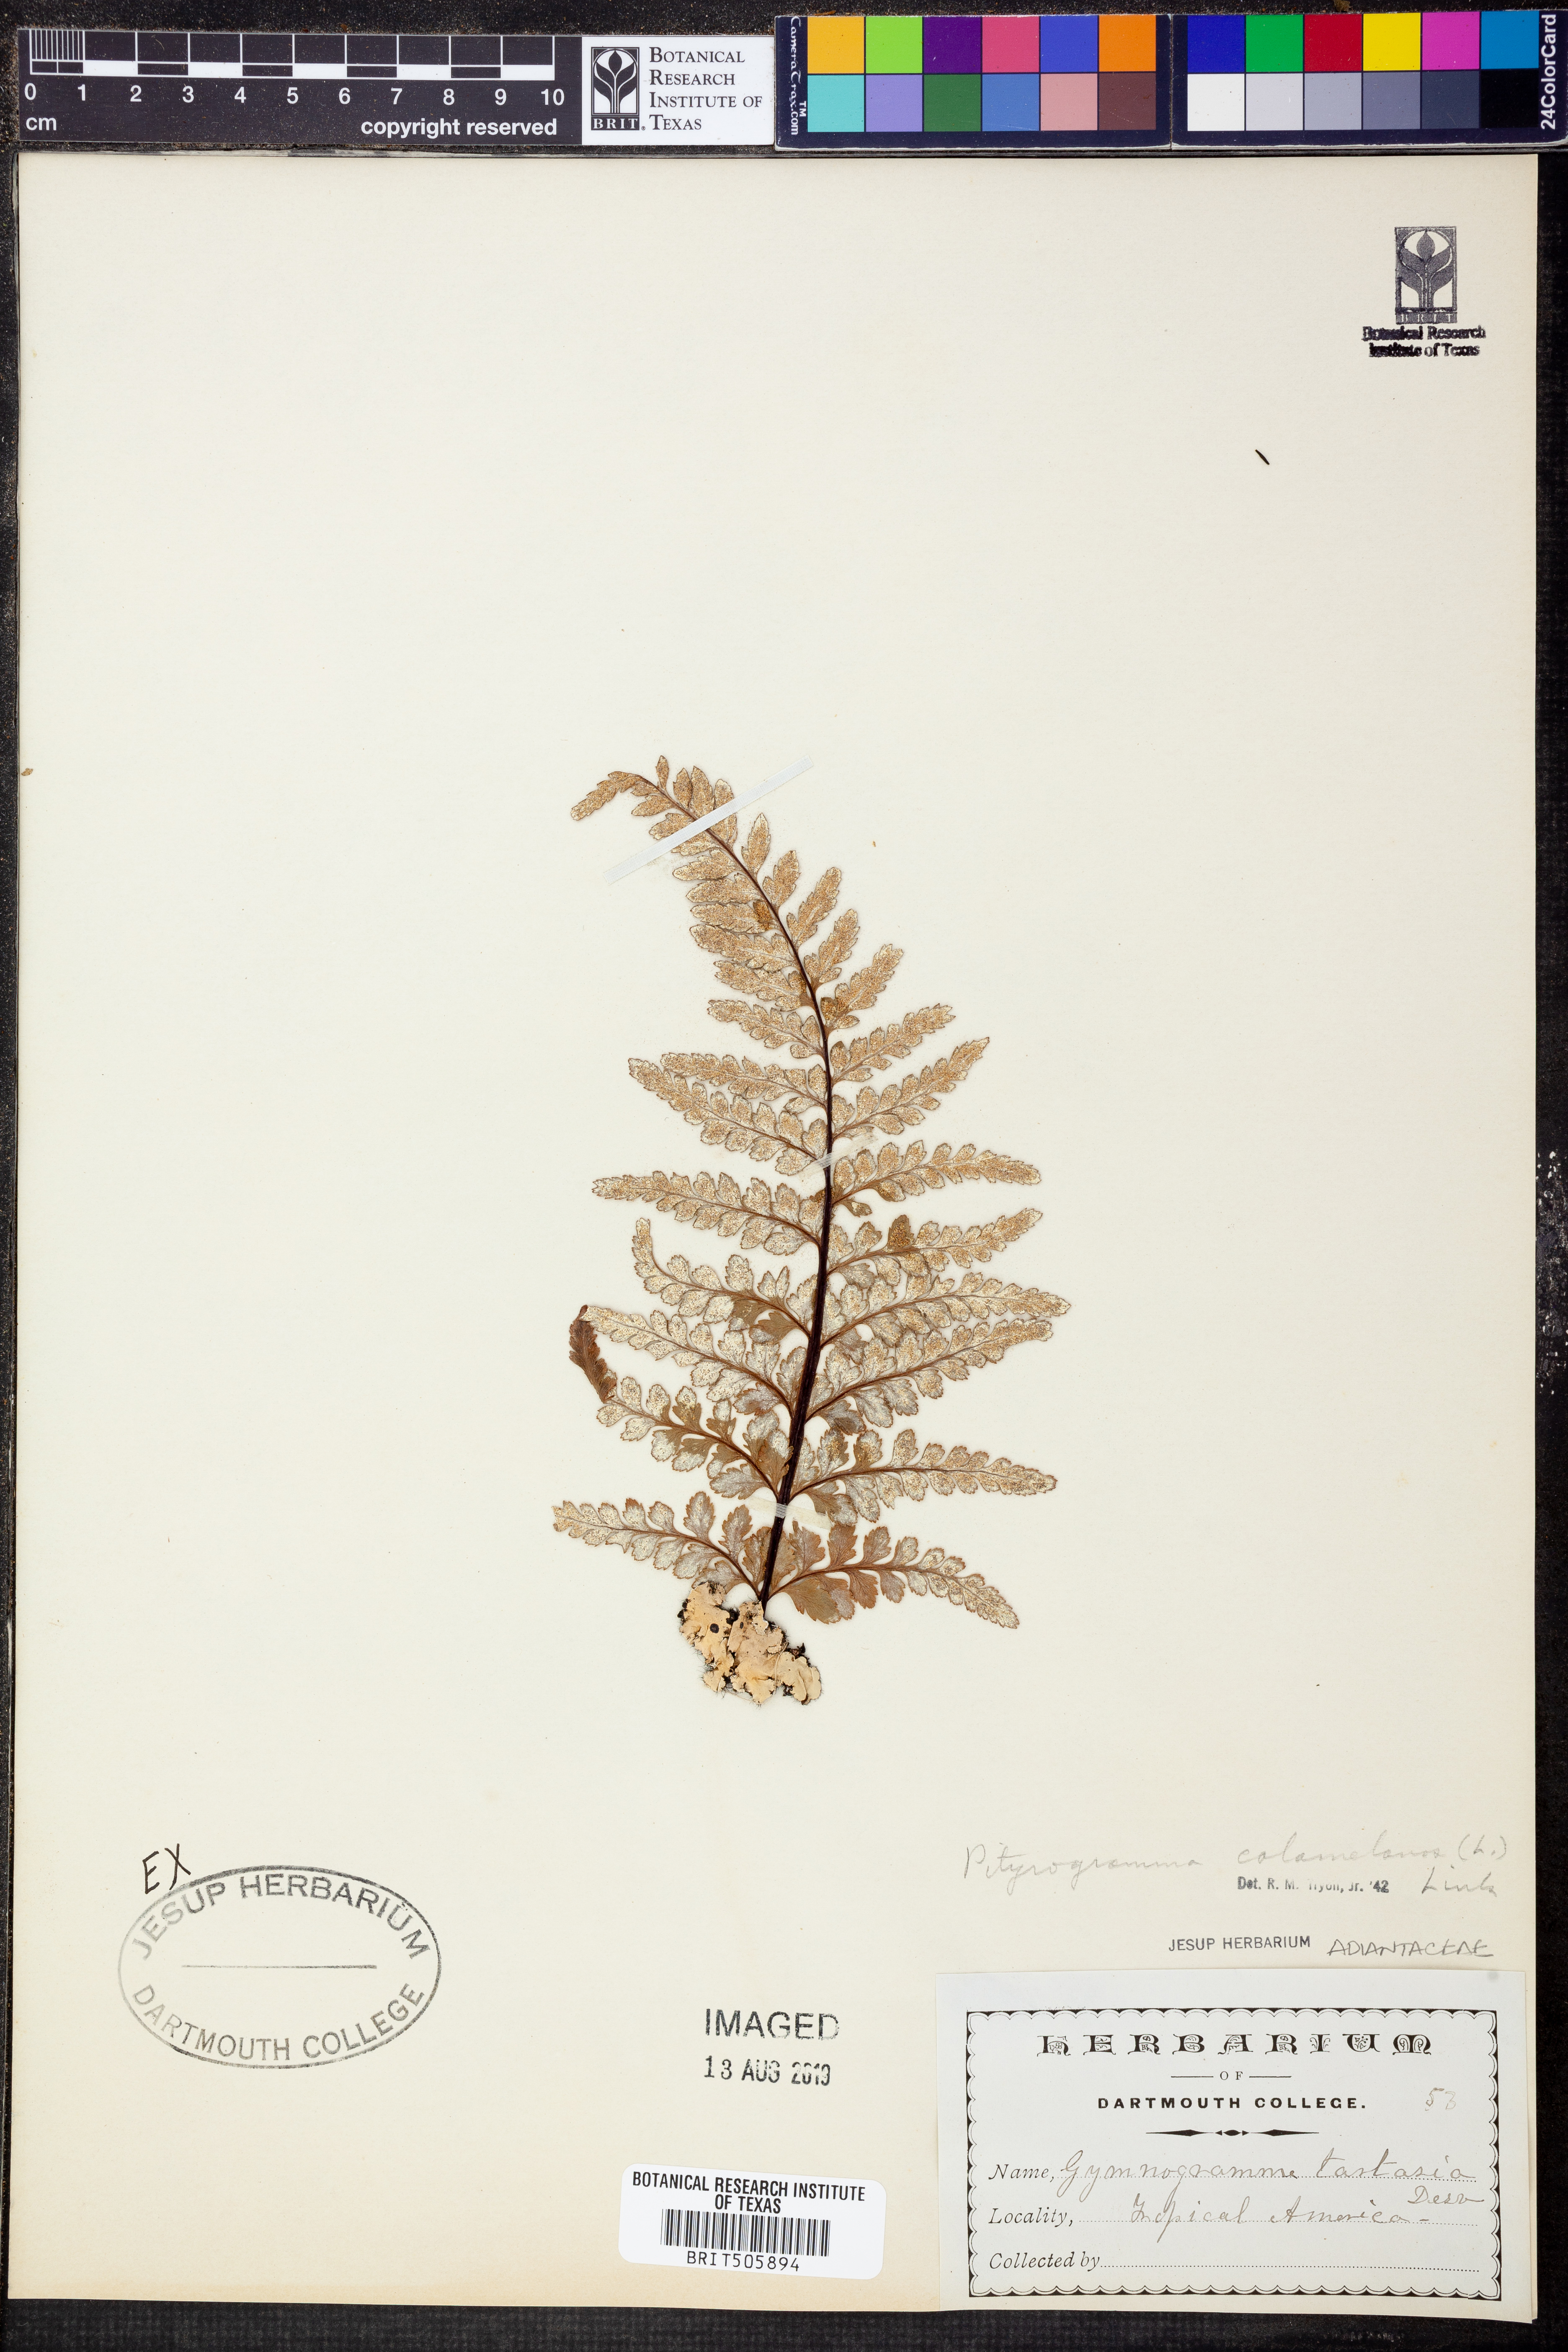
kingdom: Plantae
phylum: Tracheophyta
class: Polypodiopsida
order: Polypodiales
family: Pteridaceae
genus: Pityrogramma
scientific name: Pityrogramma calomelanos
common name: Dixie silverback fern
